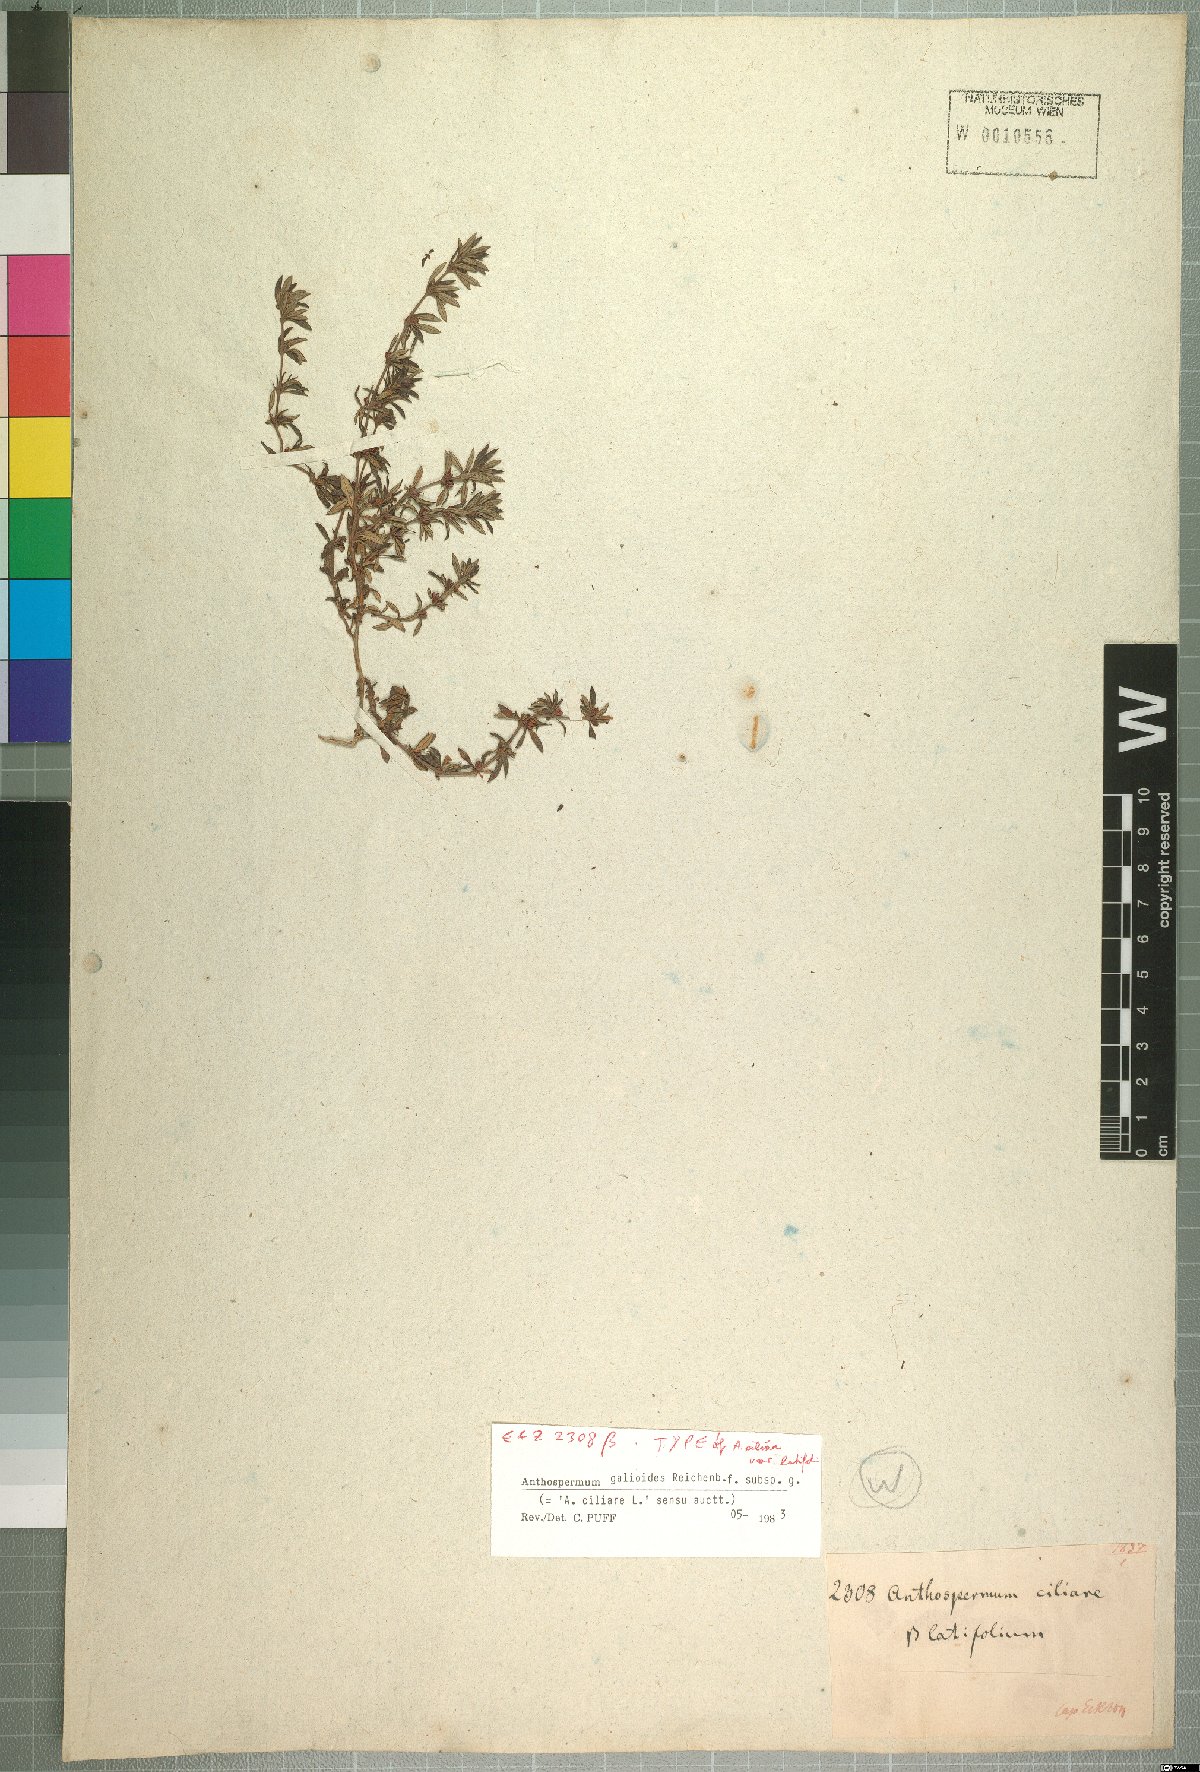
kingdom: Plantae
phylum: Tracheophyta
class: Magnoliopsida
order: Gentianales
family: Rubiaceae
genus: Anthospermum
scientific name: Anthospermum galioides
